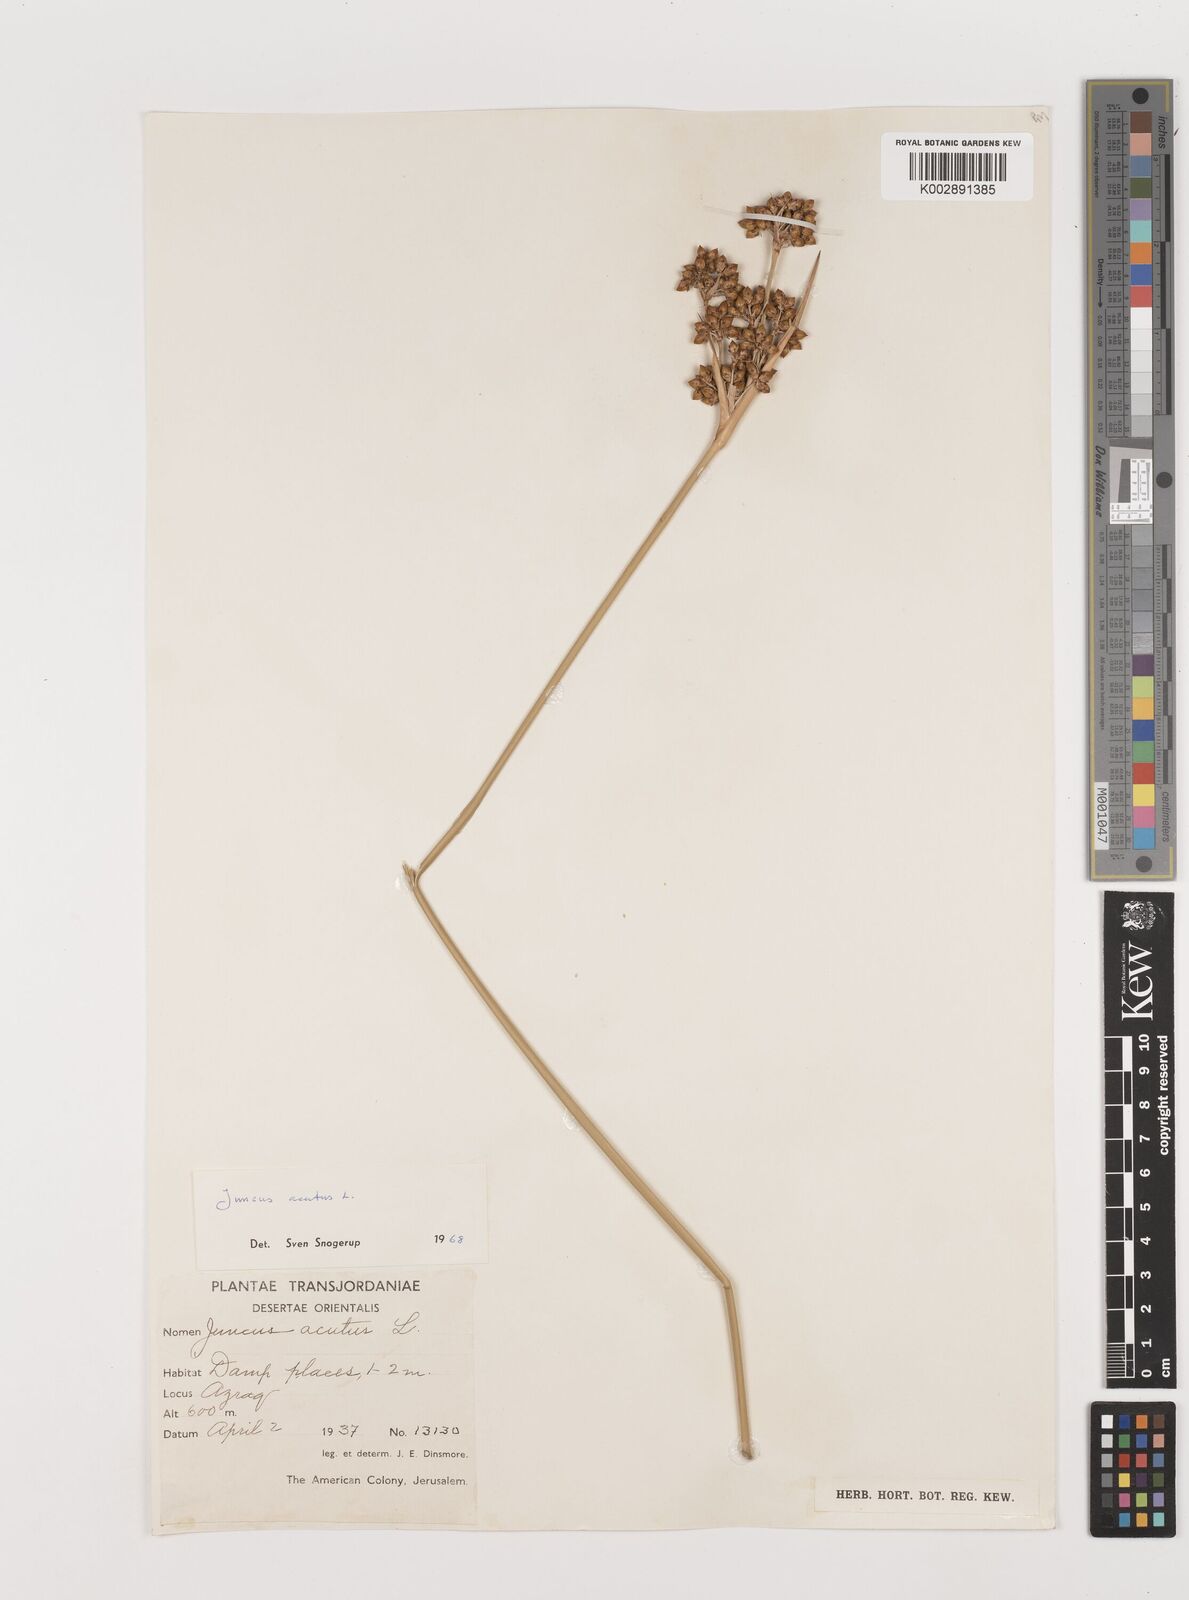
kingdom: Plantae
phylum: Tracheophyta
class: Liliopsida
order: Poales
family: Juncaceae
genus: Juncus
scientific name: Juncus acutus
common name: Sharp rush
